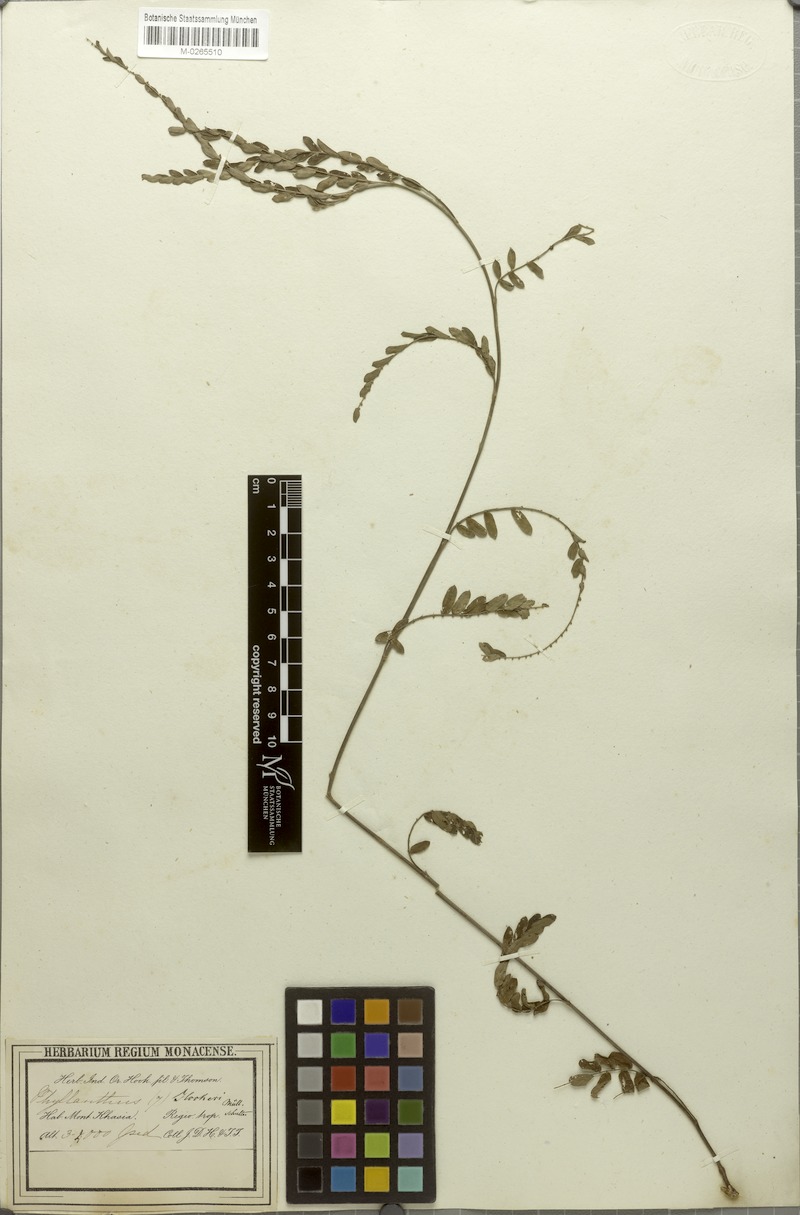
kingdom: Plantae
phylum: Tracheophyta
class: Magnoliopsida
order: Malpighiales
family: Phyllanthaceae
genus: Phyllanthus
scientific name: Phyllanthus urinaria
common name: Chamber bitter
